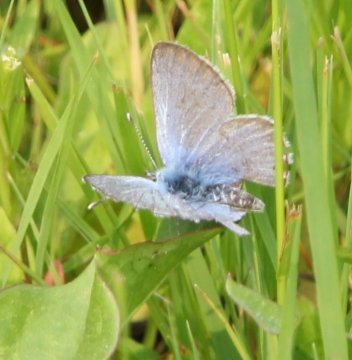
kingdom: Animalia
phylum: Arthropoda
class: Insecta
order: Lepidoptera
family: Lycaenidae
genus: Glaucopsyche
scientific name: Glaucopsyche lygdamus
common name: Silvery Blue
